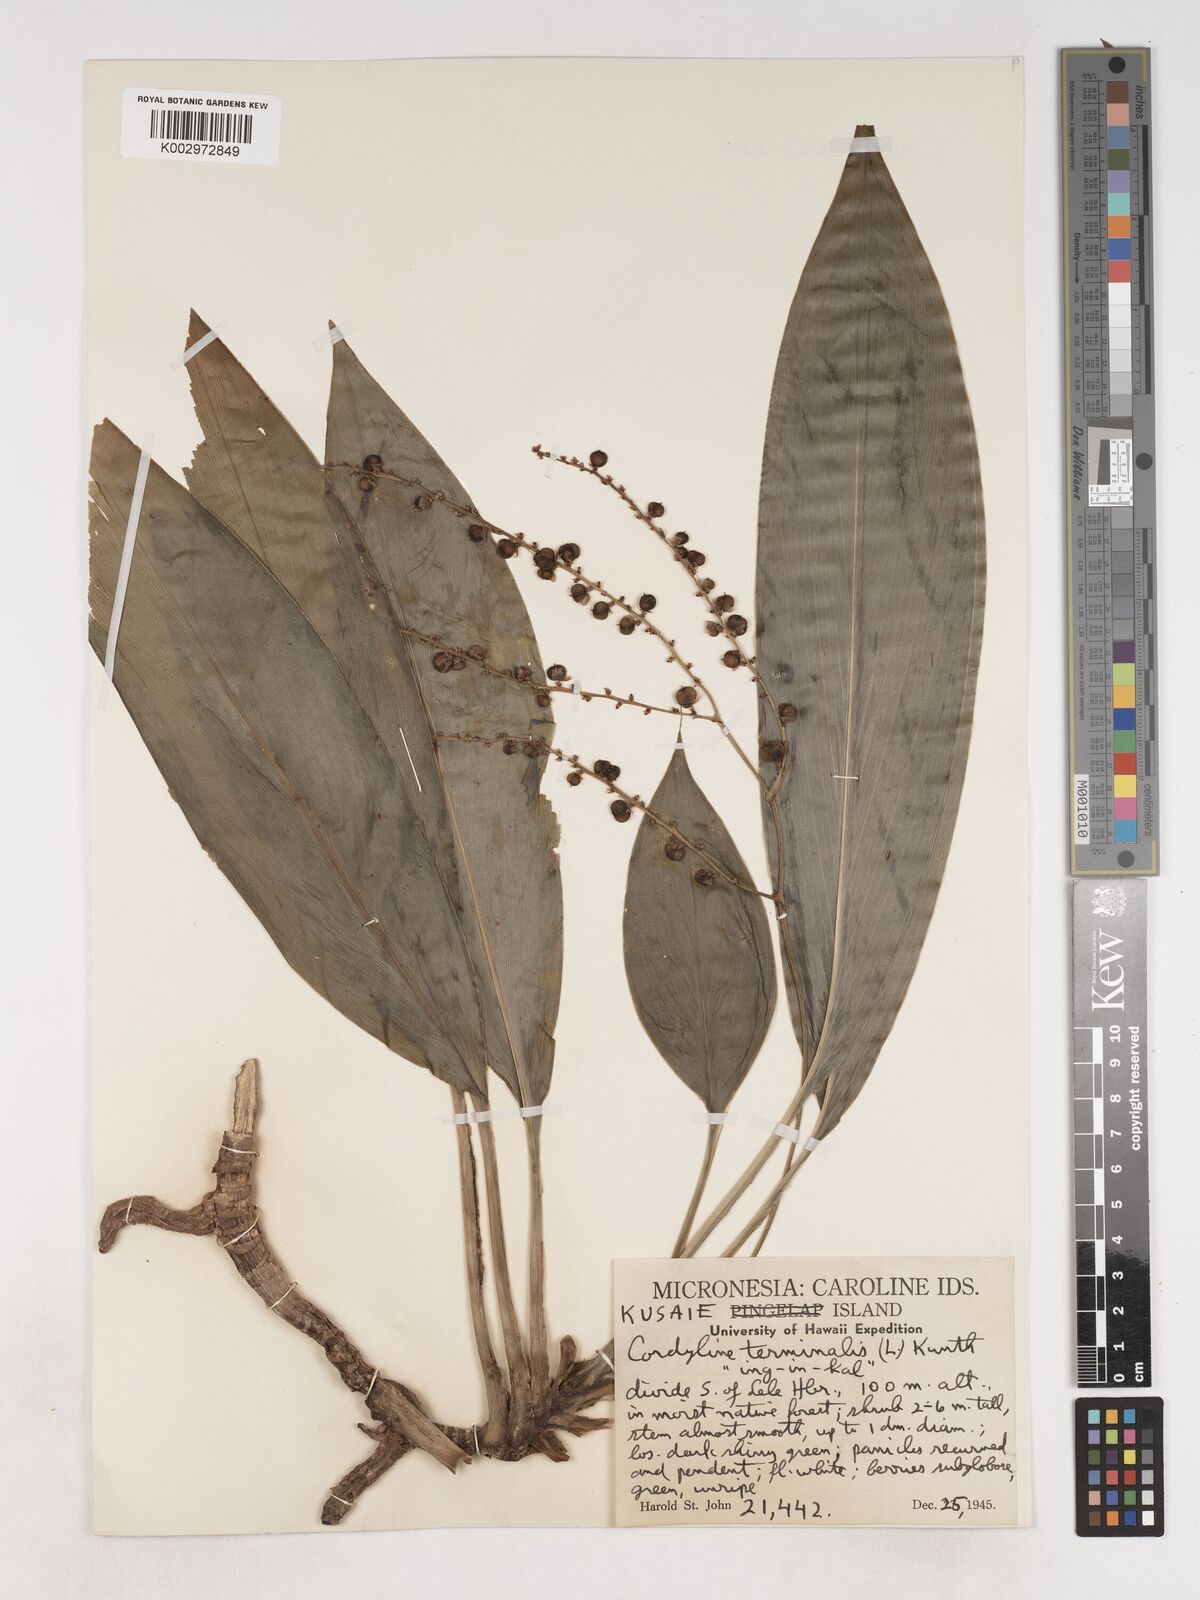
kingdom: Plantae
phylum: Tracheophyta
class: Liliopsida
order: Asparagales
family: Asparagaceae
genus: Cordyline
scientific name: Cordyline fruticosa
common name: Good-luck-plant
